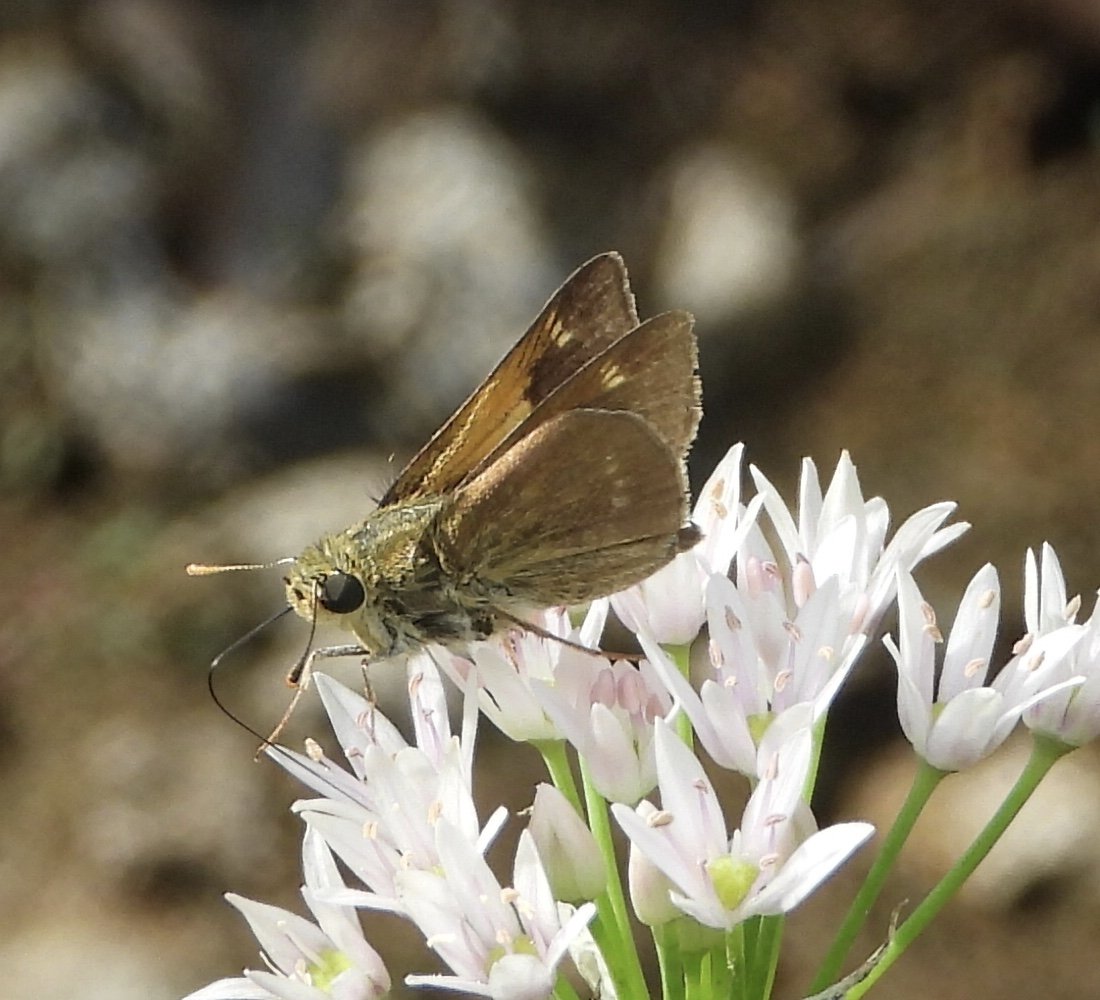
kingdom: Animalia
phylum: Arthropoda
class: Insecta
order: Lepidoptera
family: Hesperiidae
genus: Polites
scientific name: Polites
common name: Crossline Skipper
